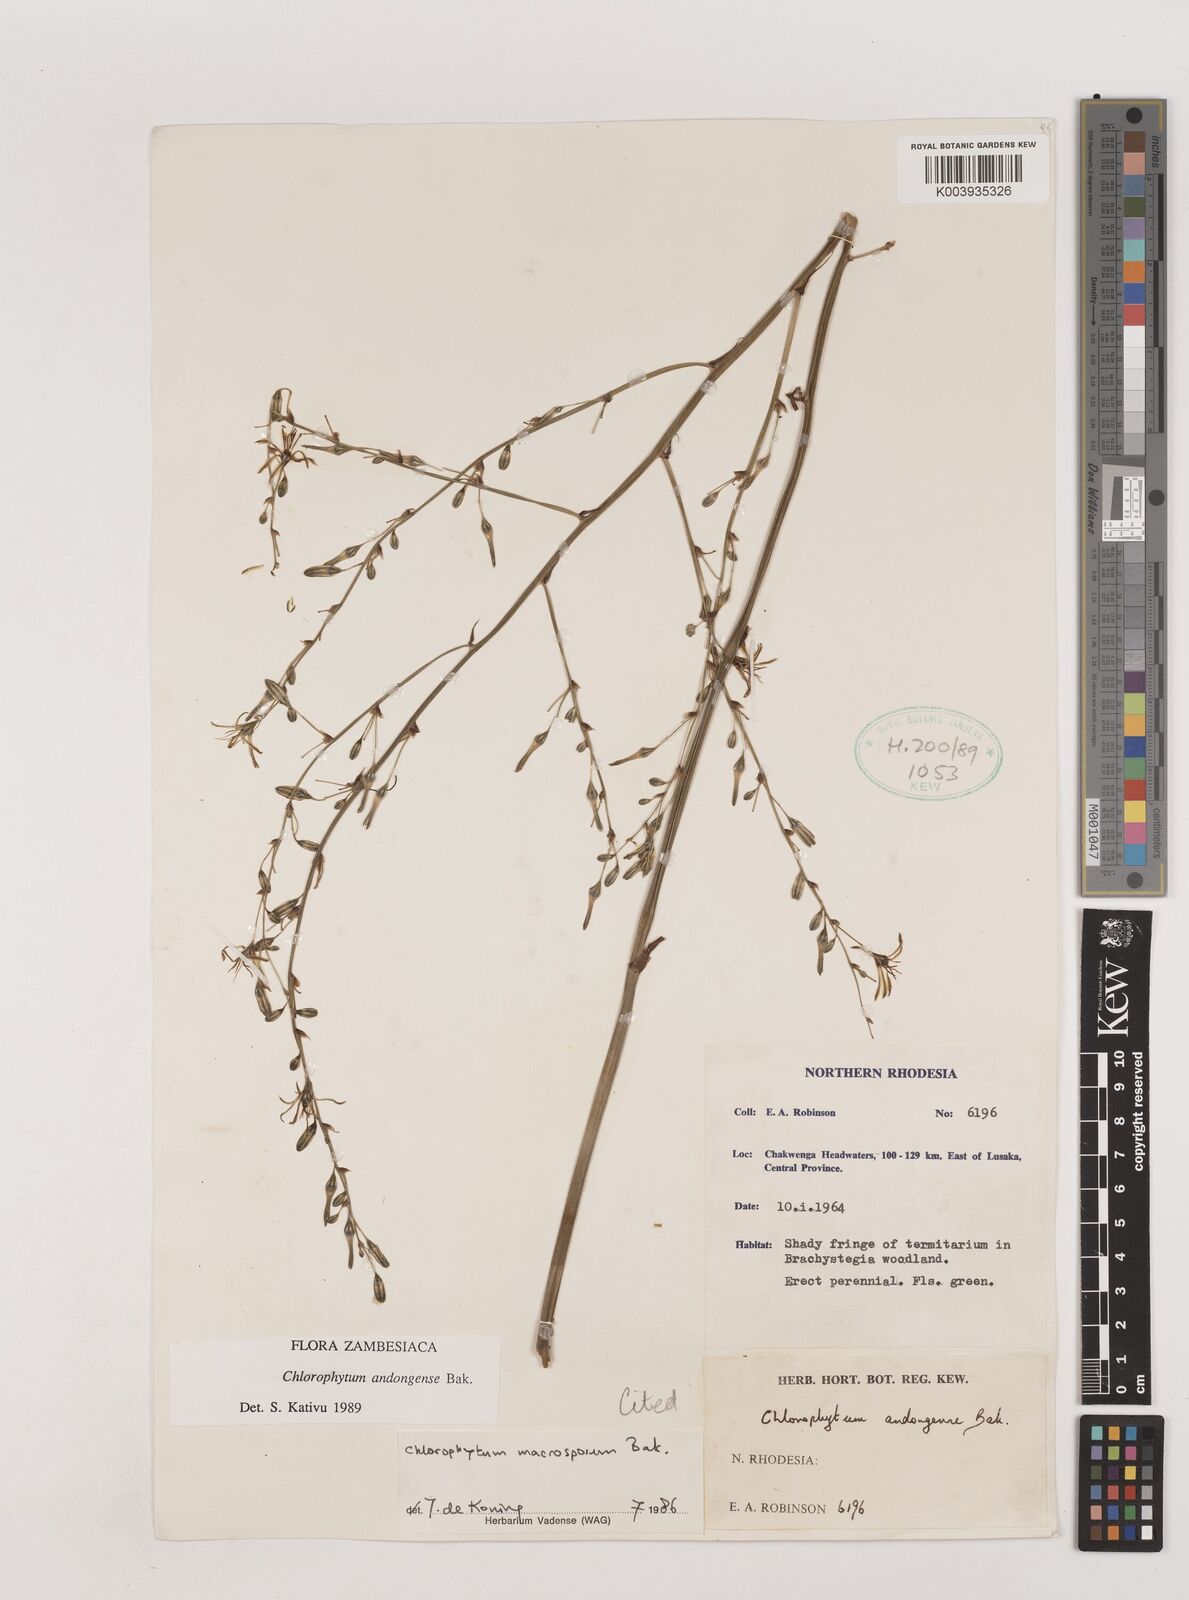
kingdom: Plantae
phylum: Tracheophyta
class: Liliopsida
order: Asparagales
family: Asparagaceae
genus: Chlorophytum
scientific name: Chlorophytum andongense
